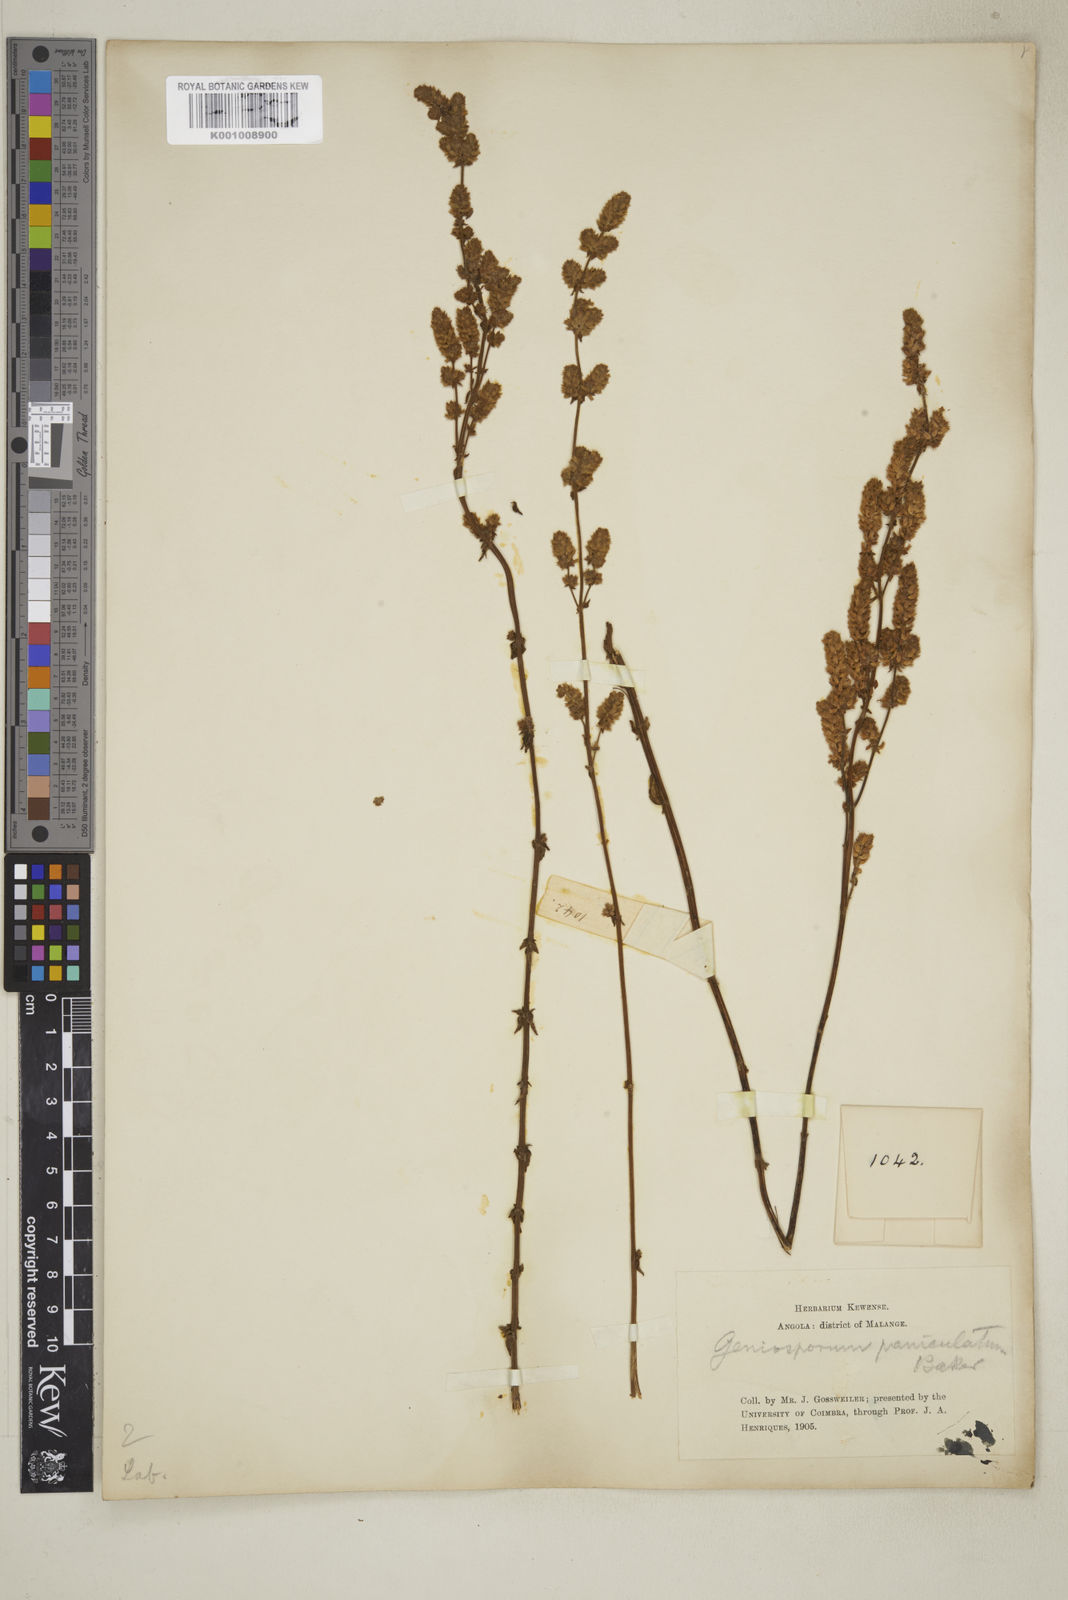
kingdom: Plantae
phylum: Tracheophyta
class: Magnoliopsida
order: Lamiales
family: Lamiaceae
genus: Plectranthus
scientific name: Plectranthus
